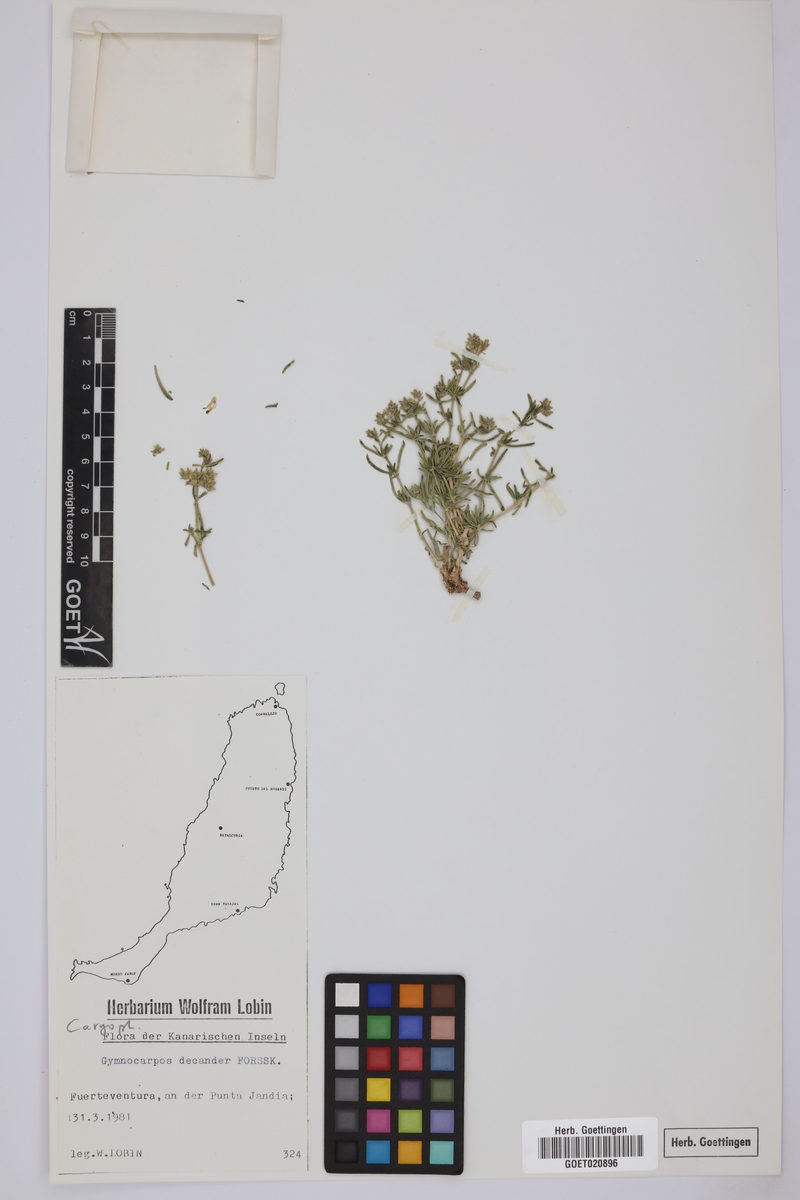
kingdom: Plantae
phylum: Tracheophyta
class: Magnoliopsida
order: Caryophyllales
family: Caryophyllaceae
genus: Gymnocarpos
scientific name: Gymnocarpos decandrus
